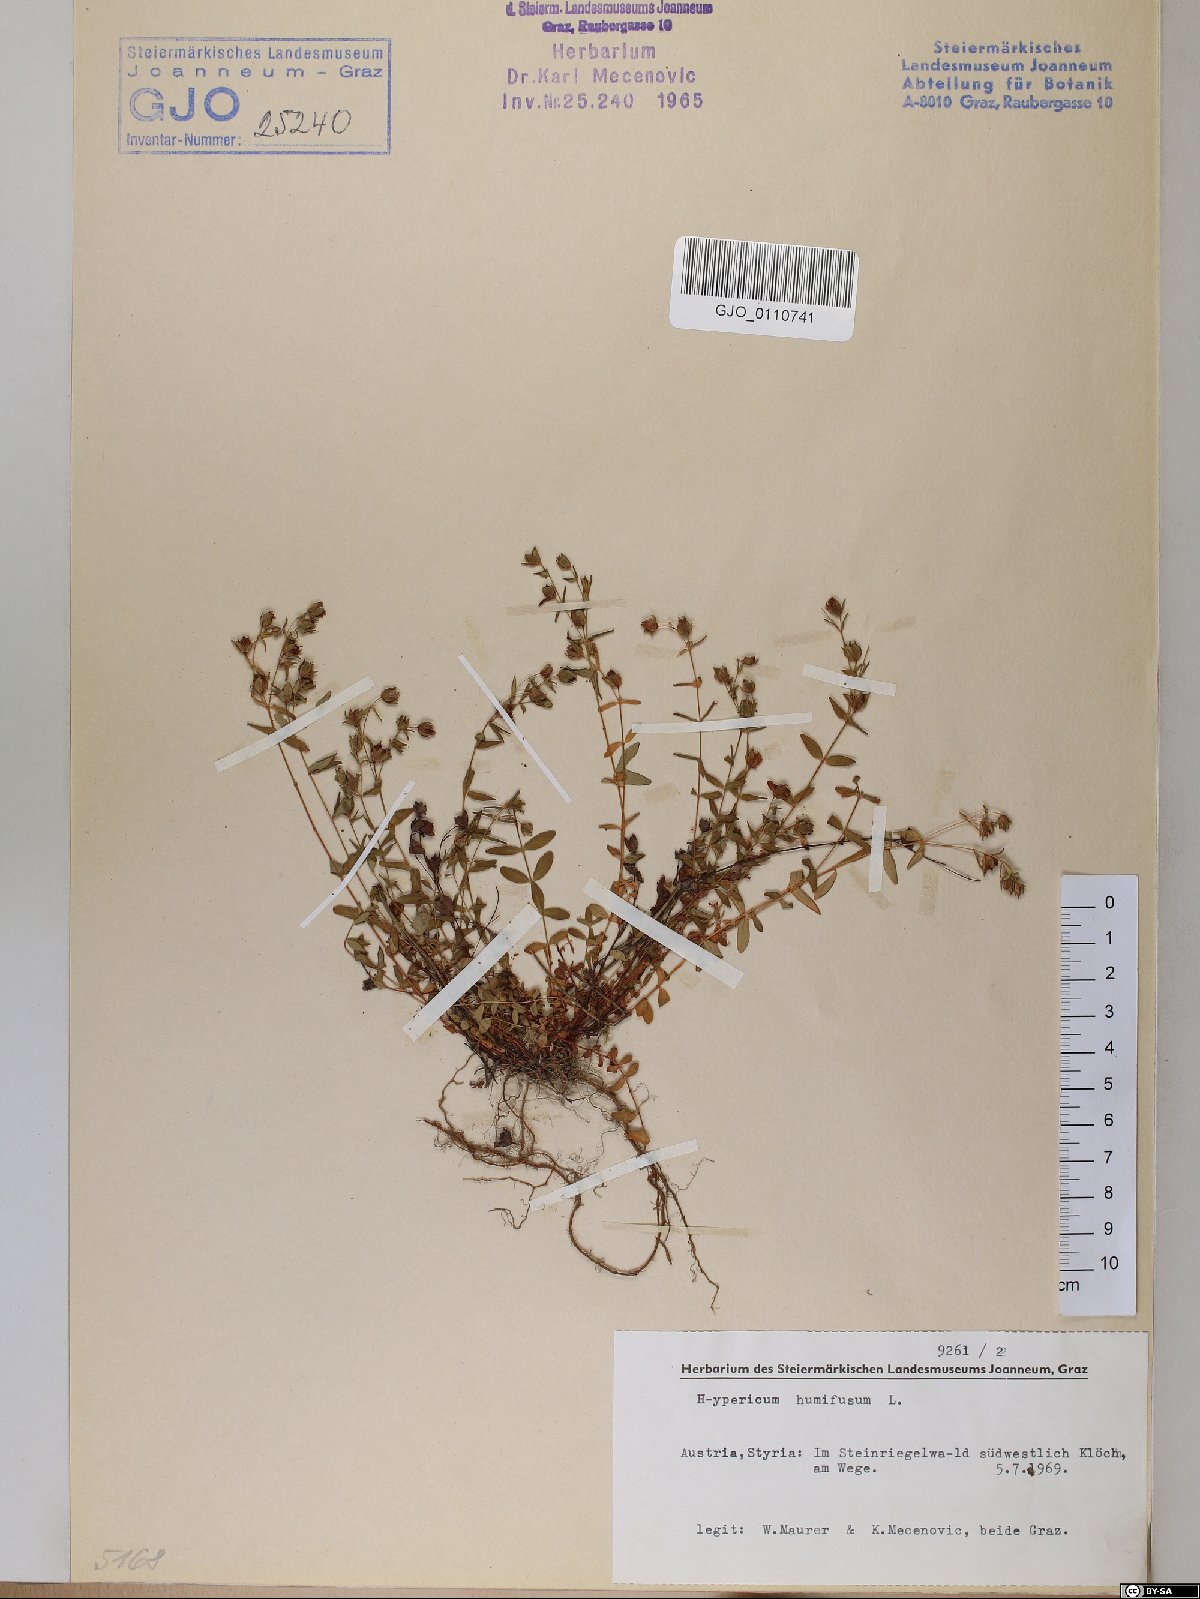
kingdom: Plantae
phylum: Tracheophyta
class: Magnoliopsida
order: Malpighiales
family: Hypericaceae
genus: Hypericum
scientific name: Hypericum humifusum
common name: Trailing st. john's-wort
